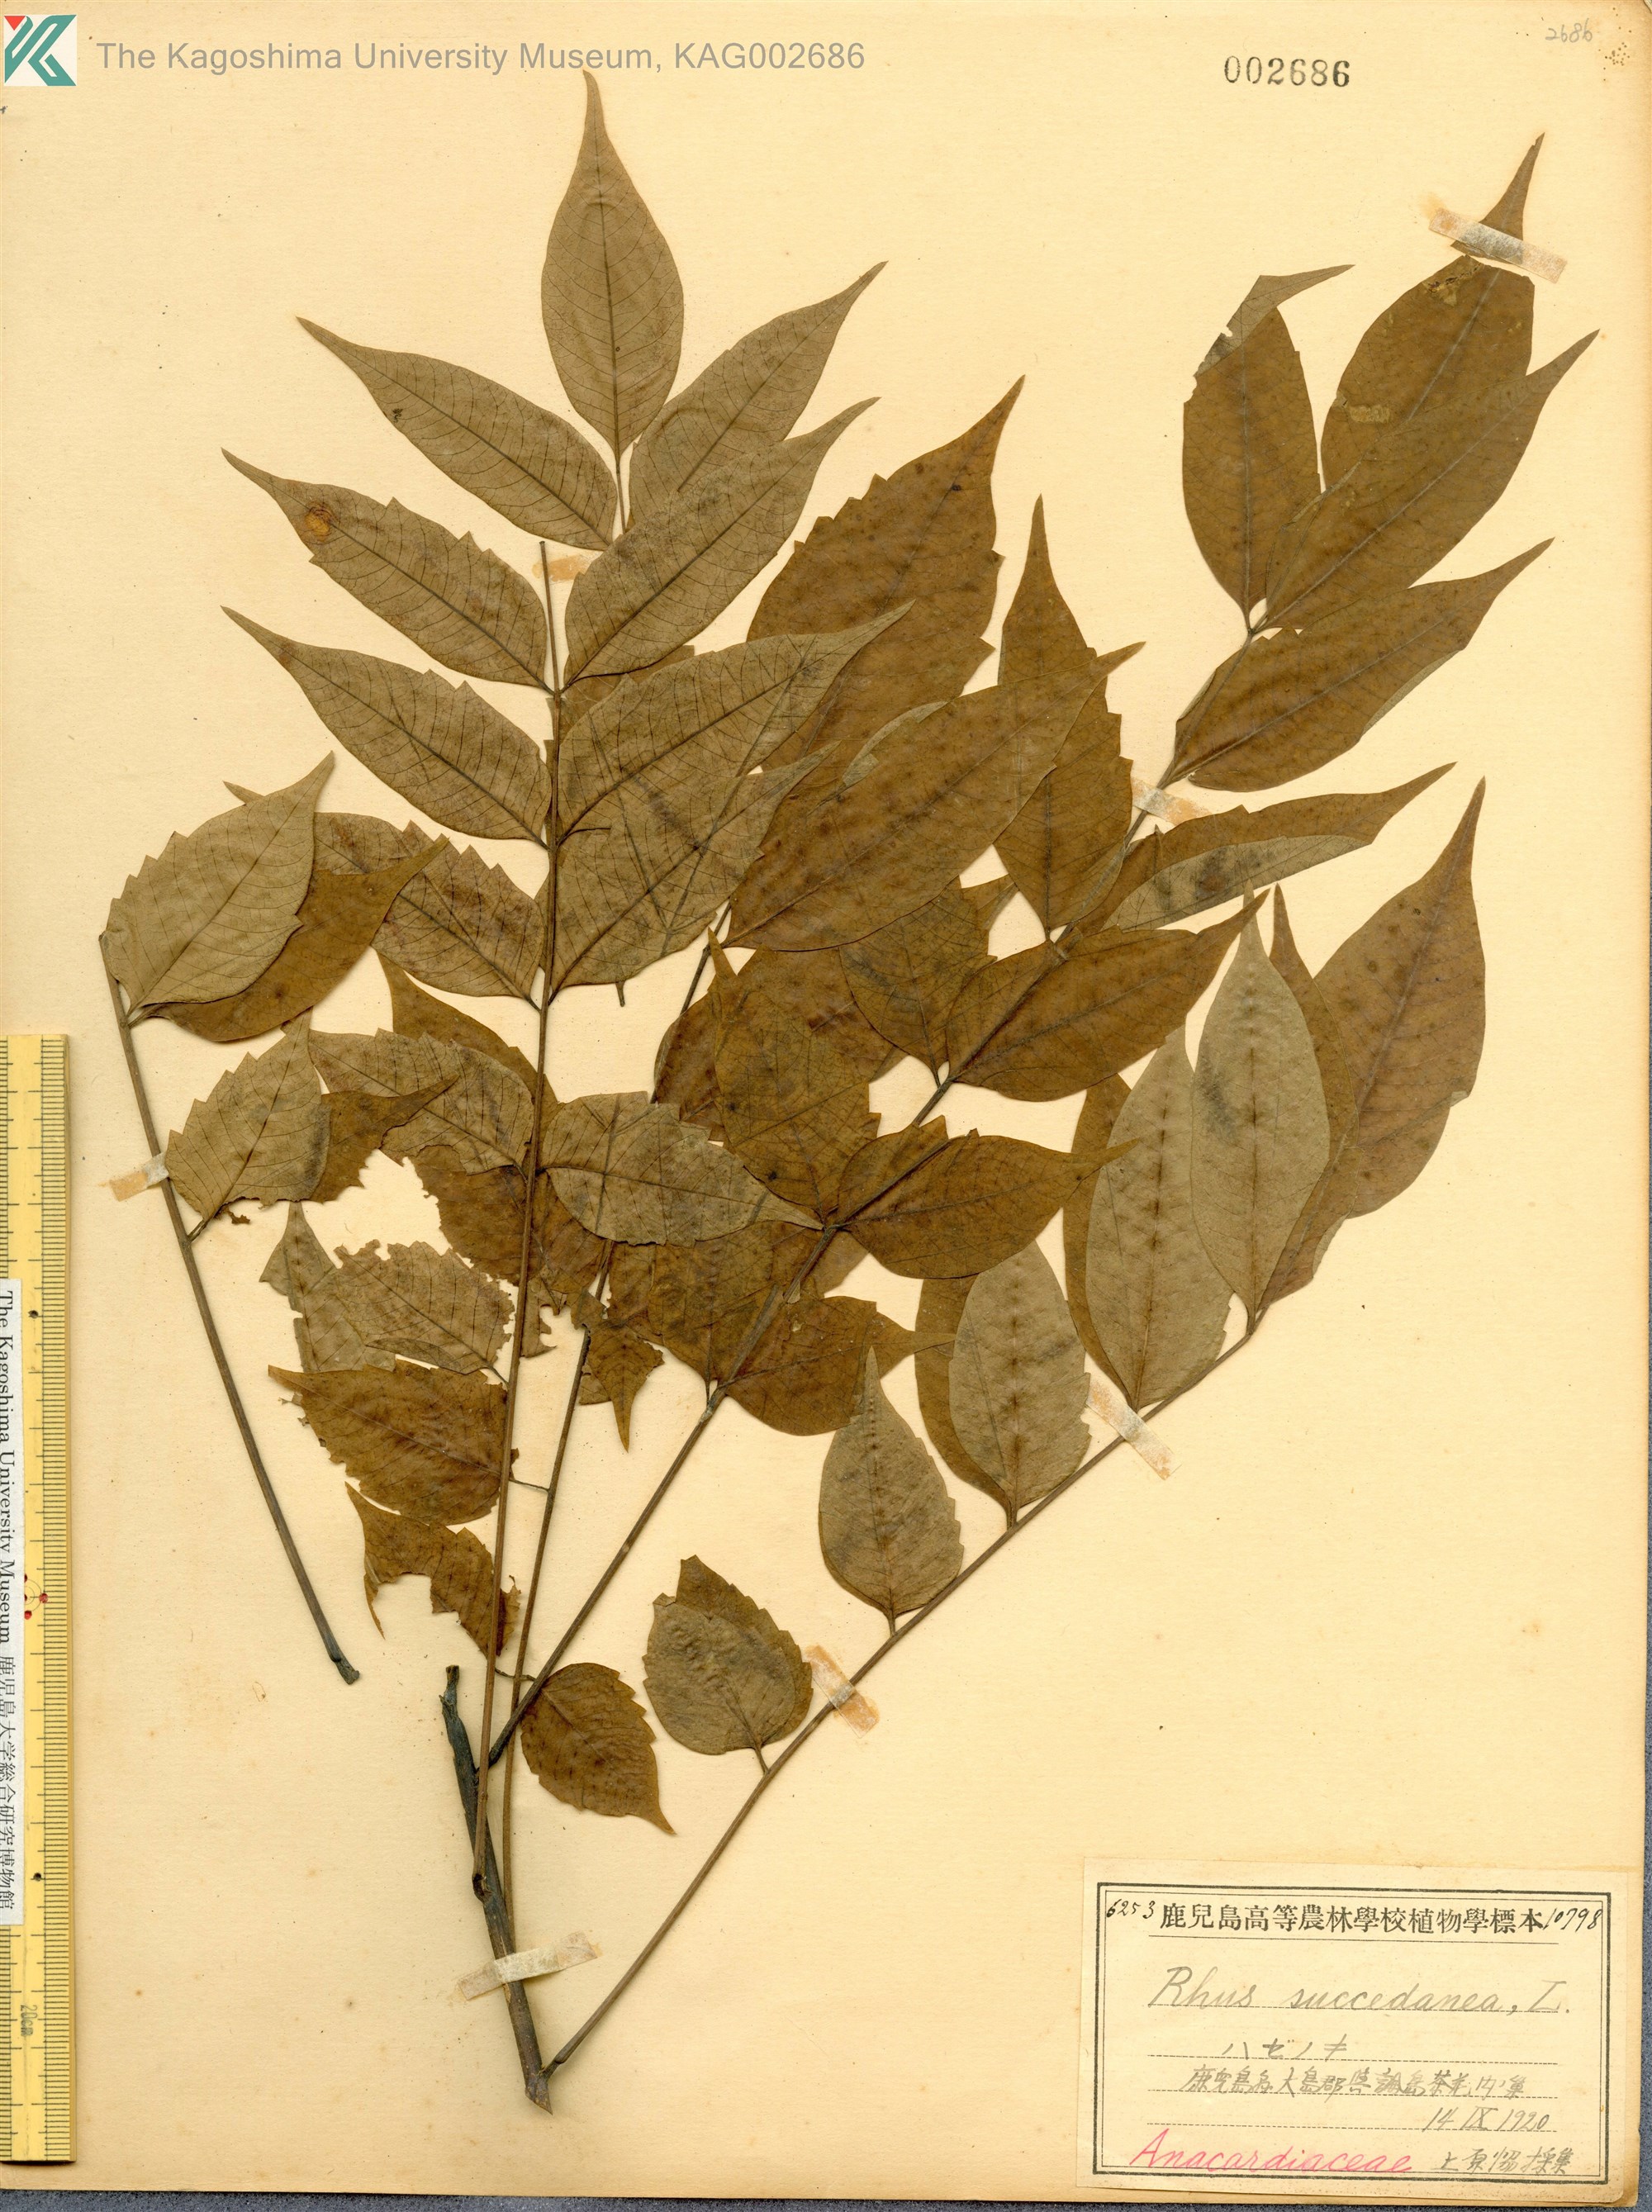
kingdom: Plantae
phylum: Tracheophyta
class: Magnoliopsida
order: Sapindales
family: Anacardiaceae
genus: Toxicodendron
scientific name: Toxicodendron succedaneum
